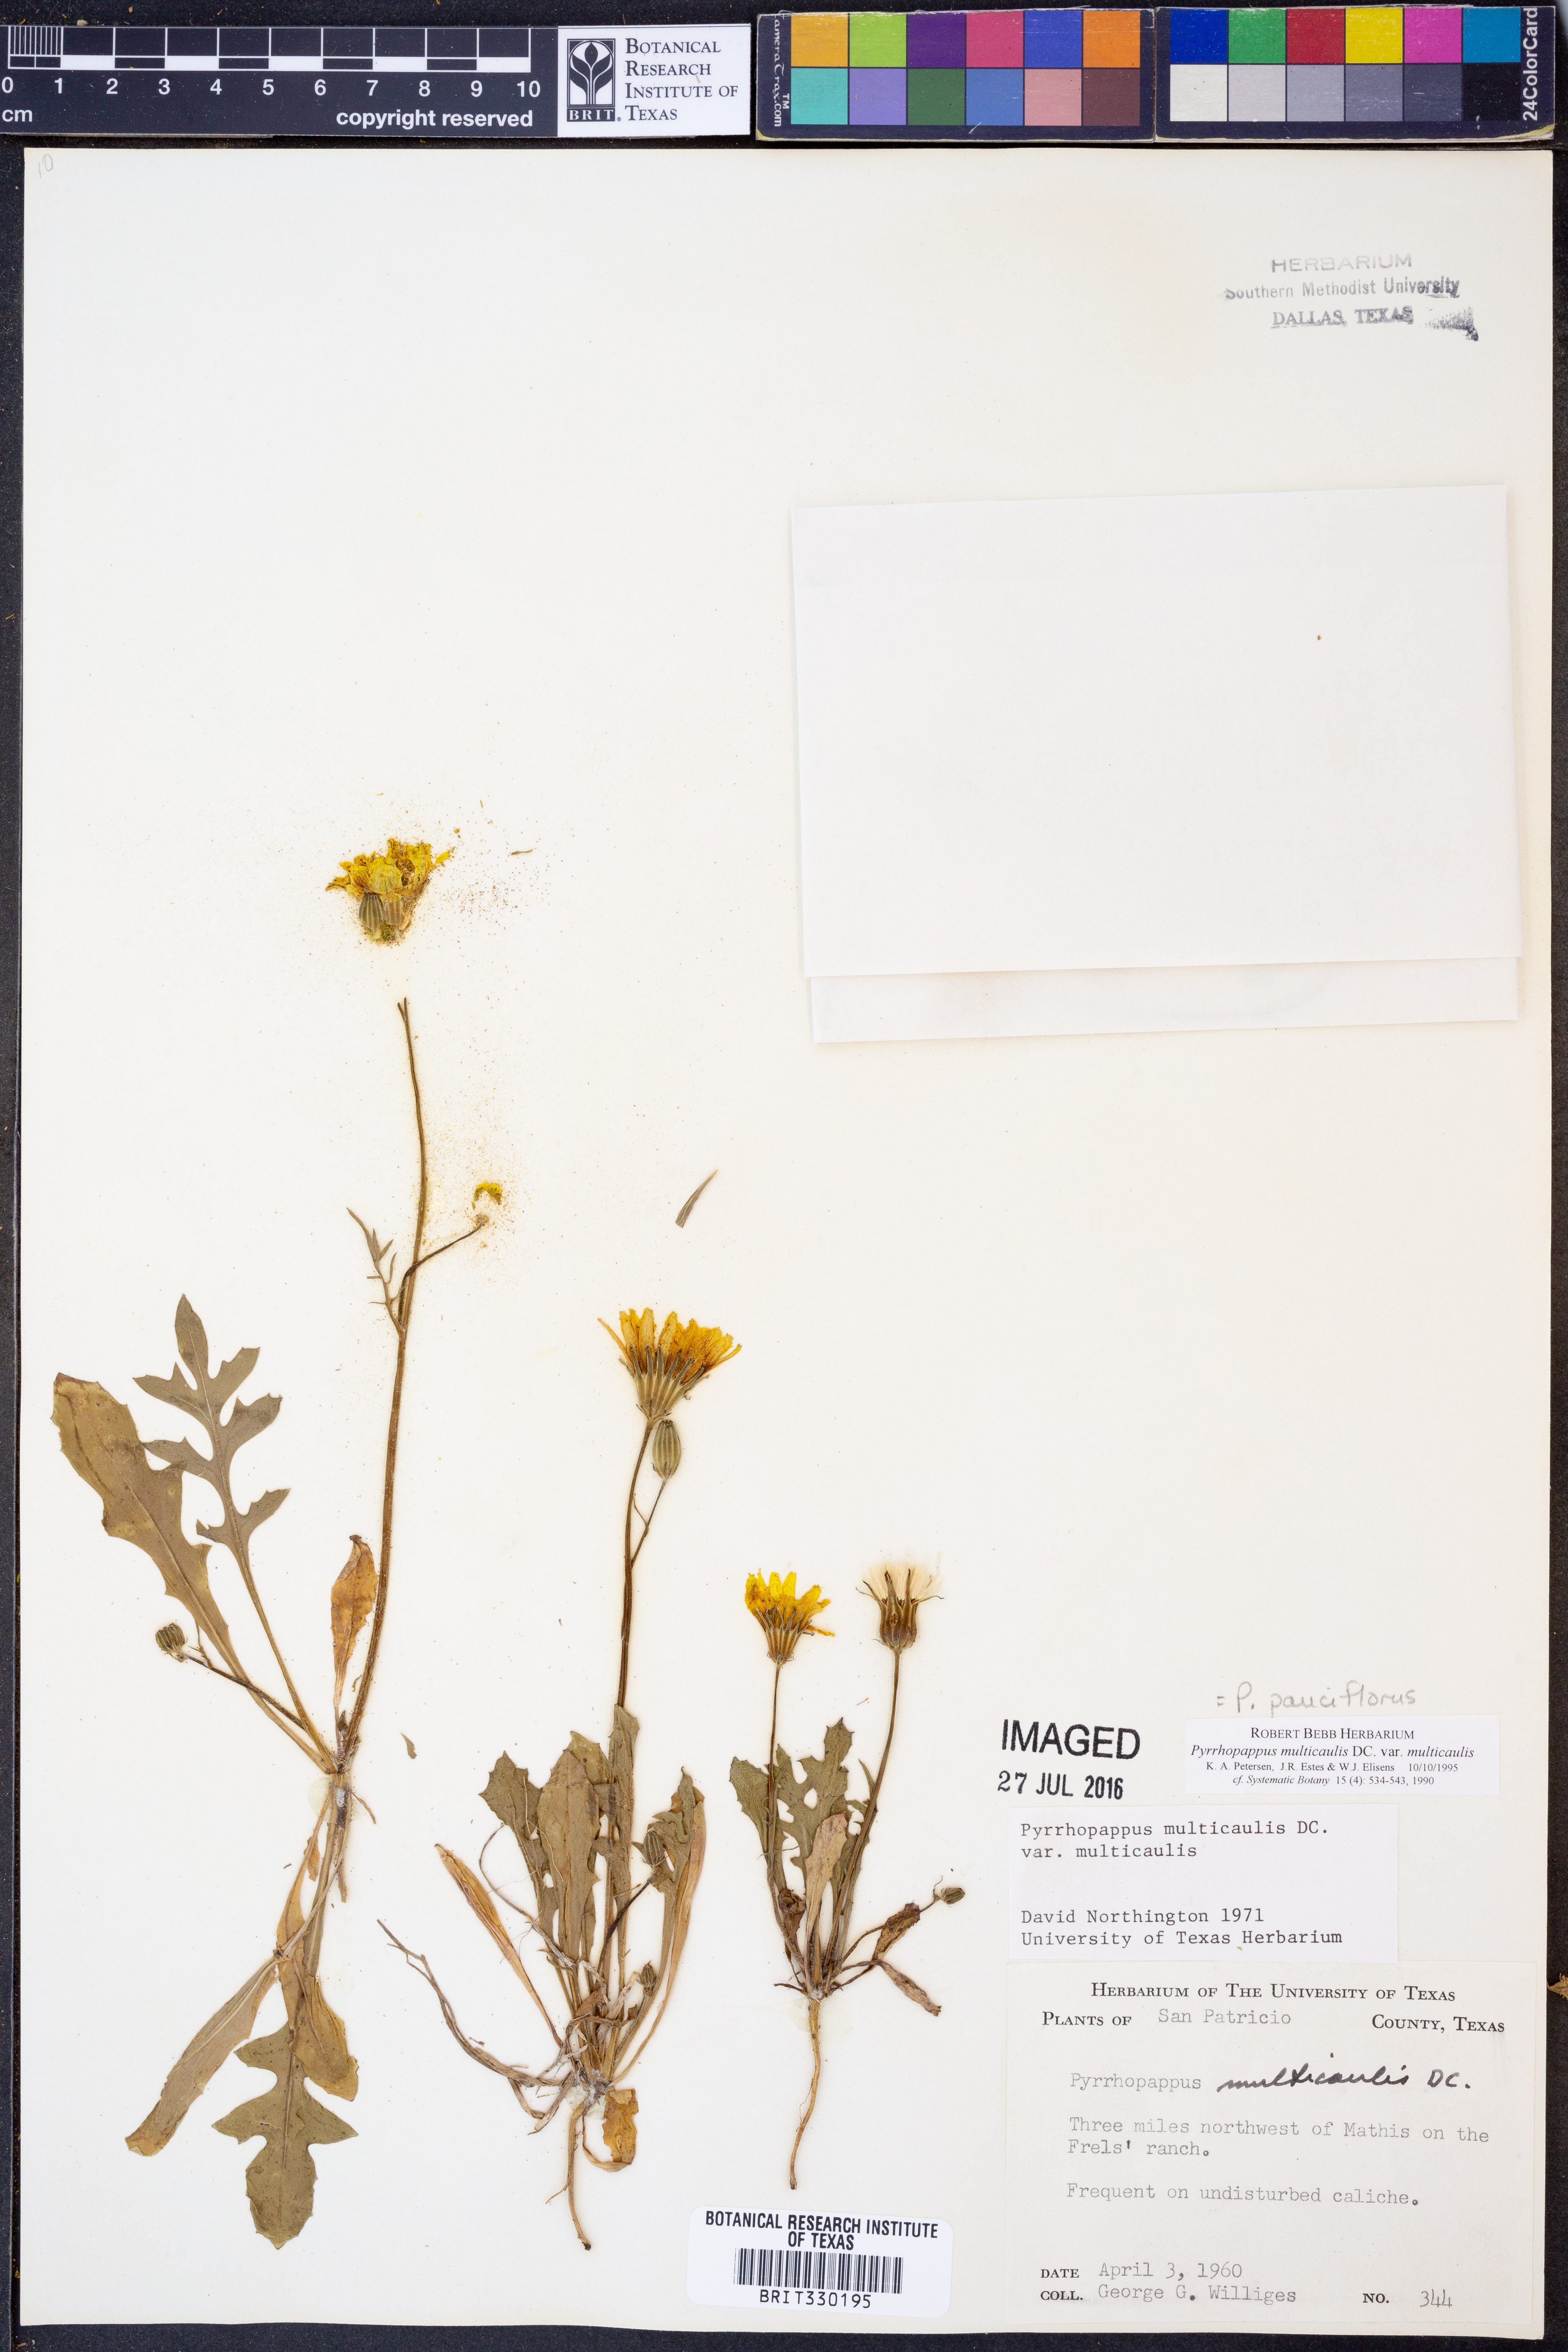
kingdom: Plantae
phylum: Tracheophyta
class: Magnoliopsida
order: Asterales
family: Asteraceae
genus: Pyrrhopappus
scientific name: Pyrrhopappus pauciflorus
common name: Texas false dandelion
